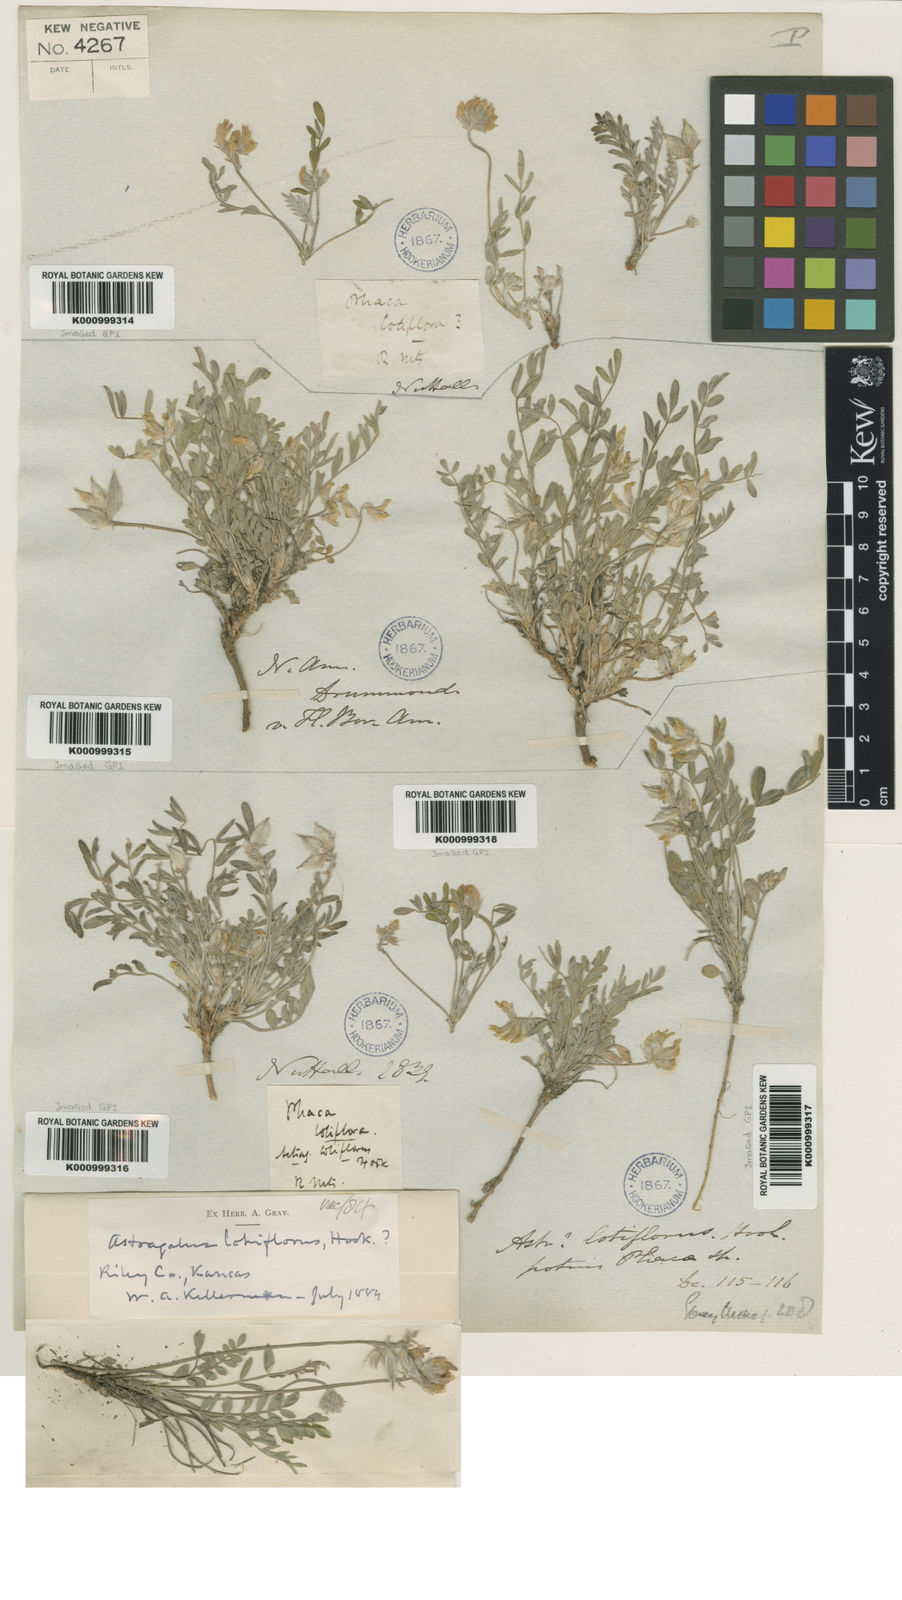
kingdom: Plantae
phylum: Tracheophyta
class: Magnoliopsida
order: Fabales
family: Fabaceae
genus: Astragalus
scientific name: Astragalus lotiflorus
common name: Lotus milk-vetch
